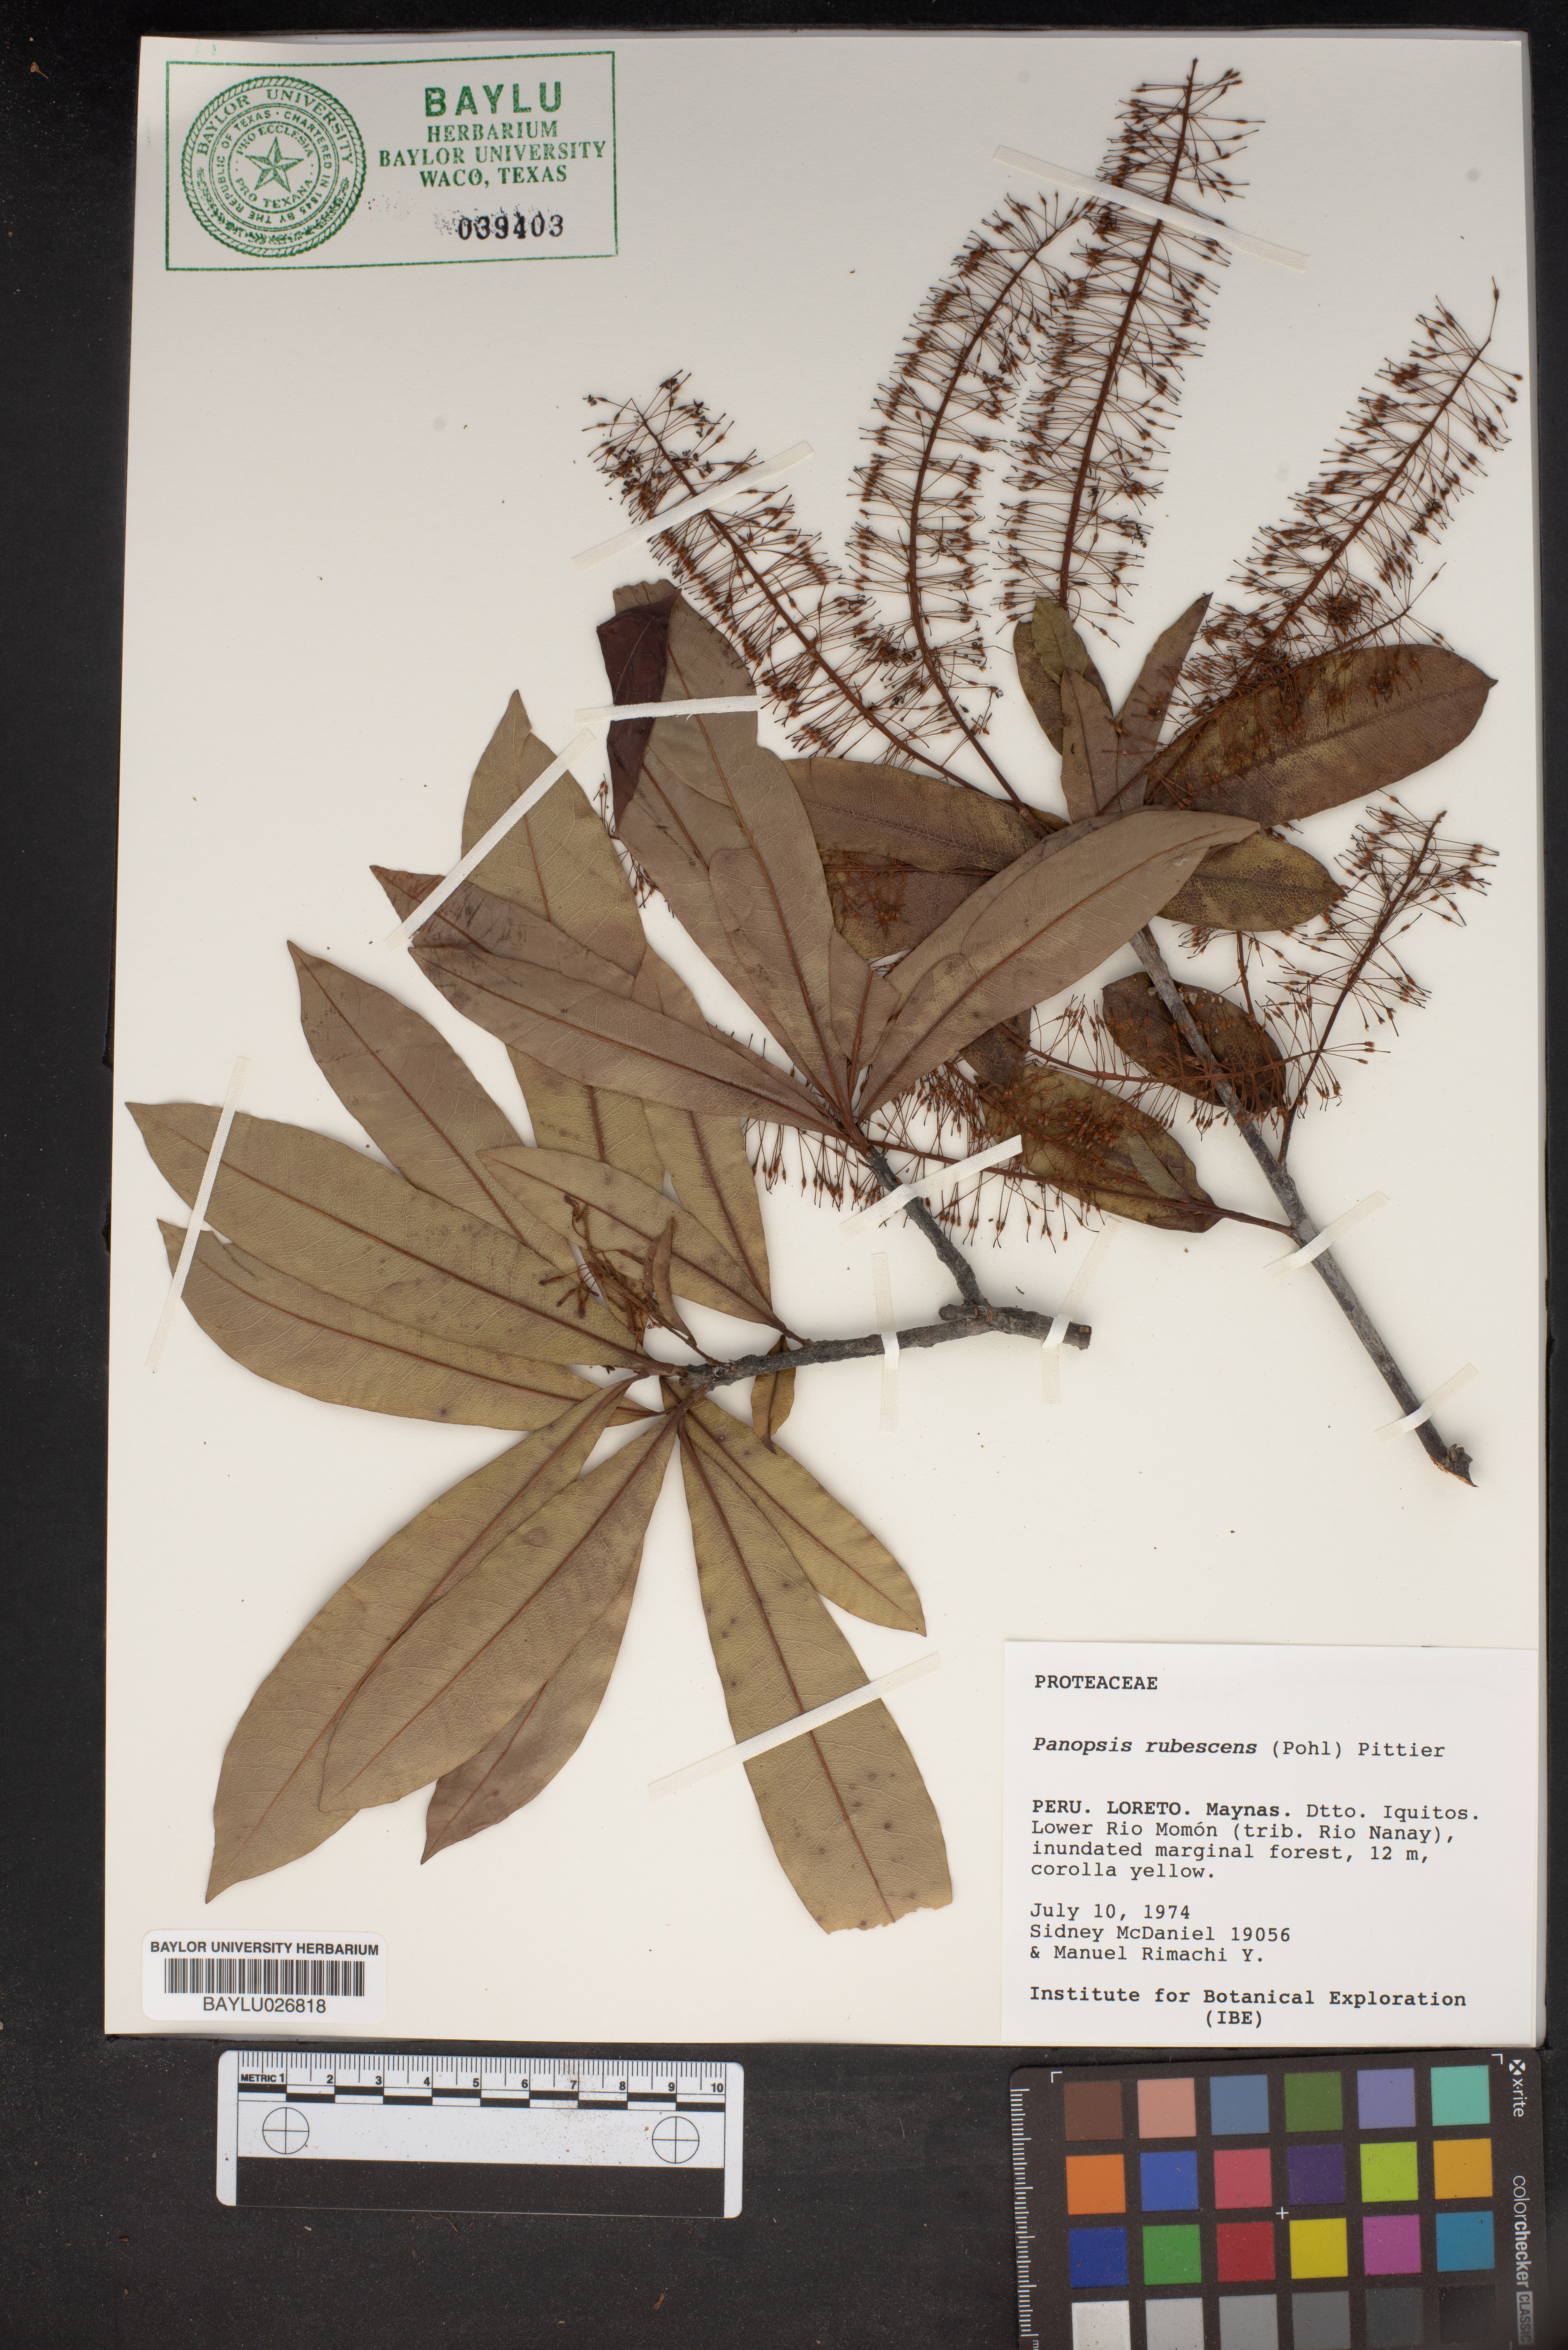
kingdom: Plantae
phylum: Tracheophyta
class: Magnoliopsida
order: Proteales
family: Proteaceae
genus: Panopsis
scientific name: Panopsis rubescens
